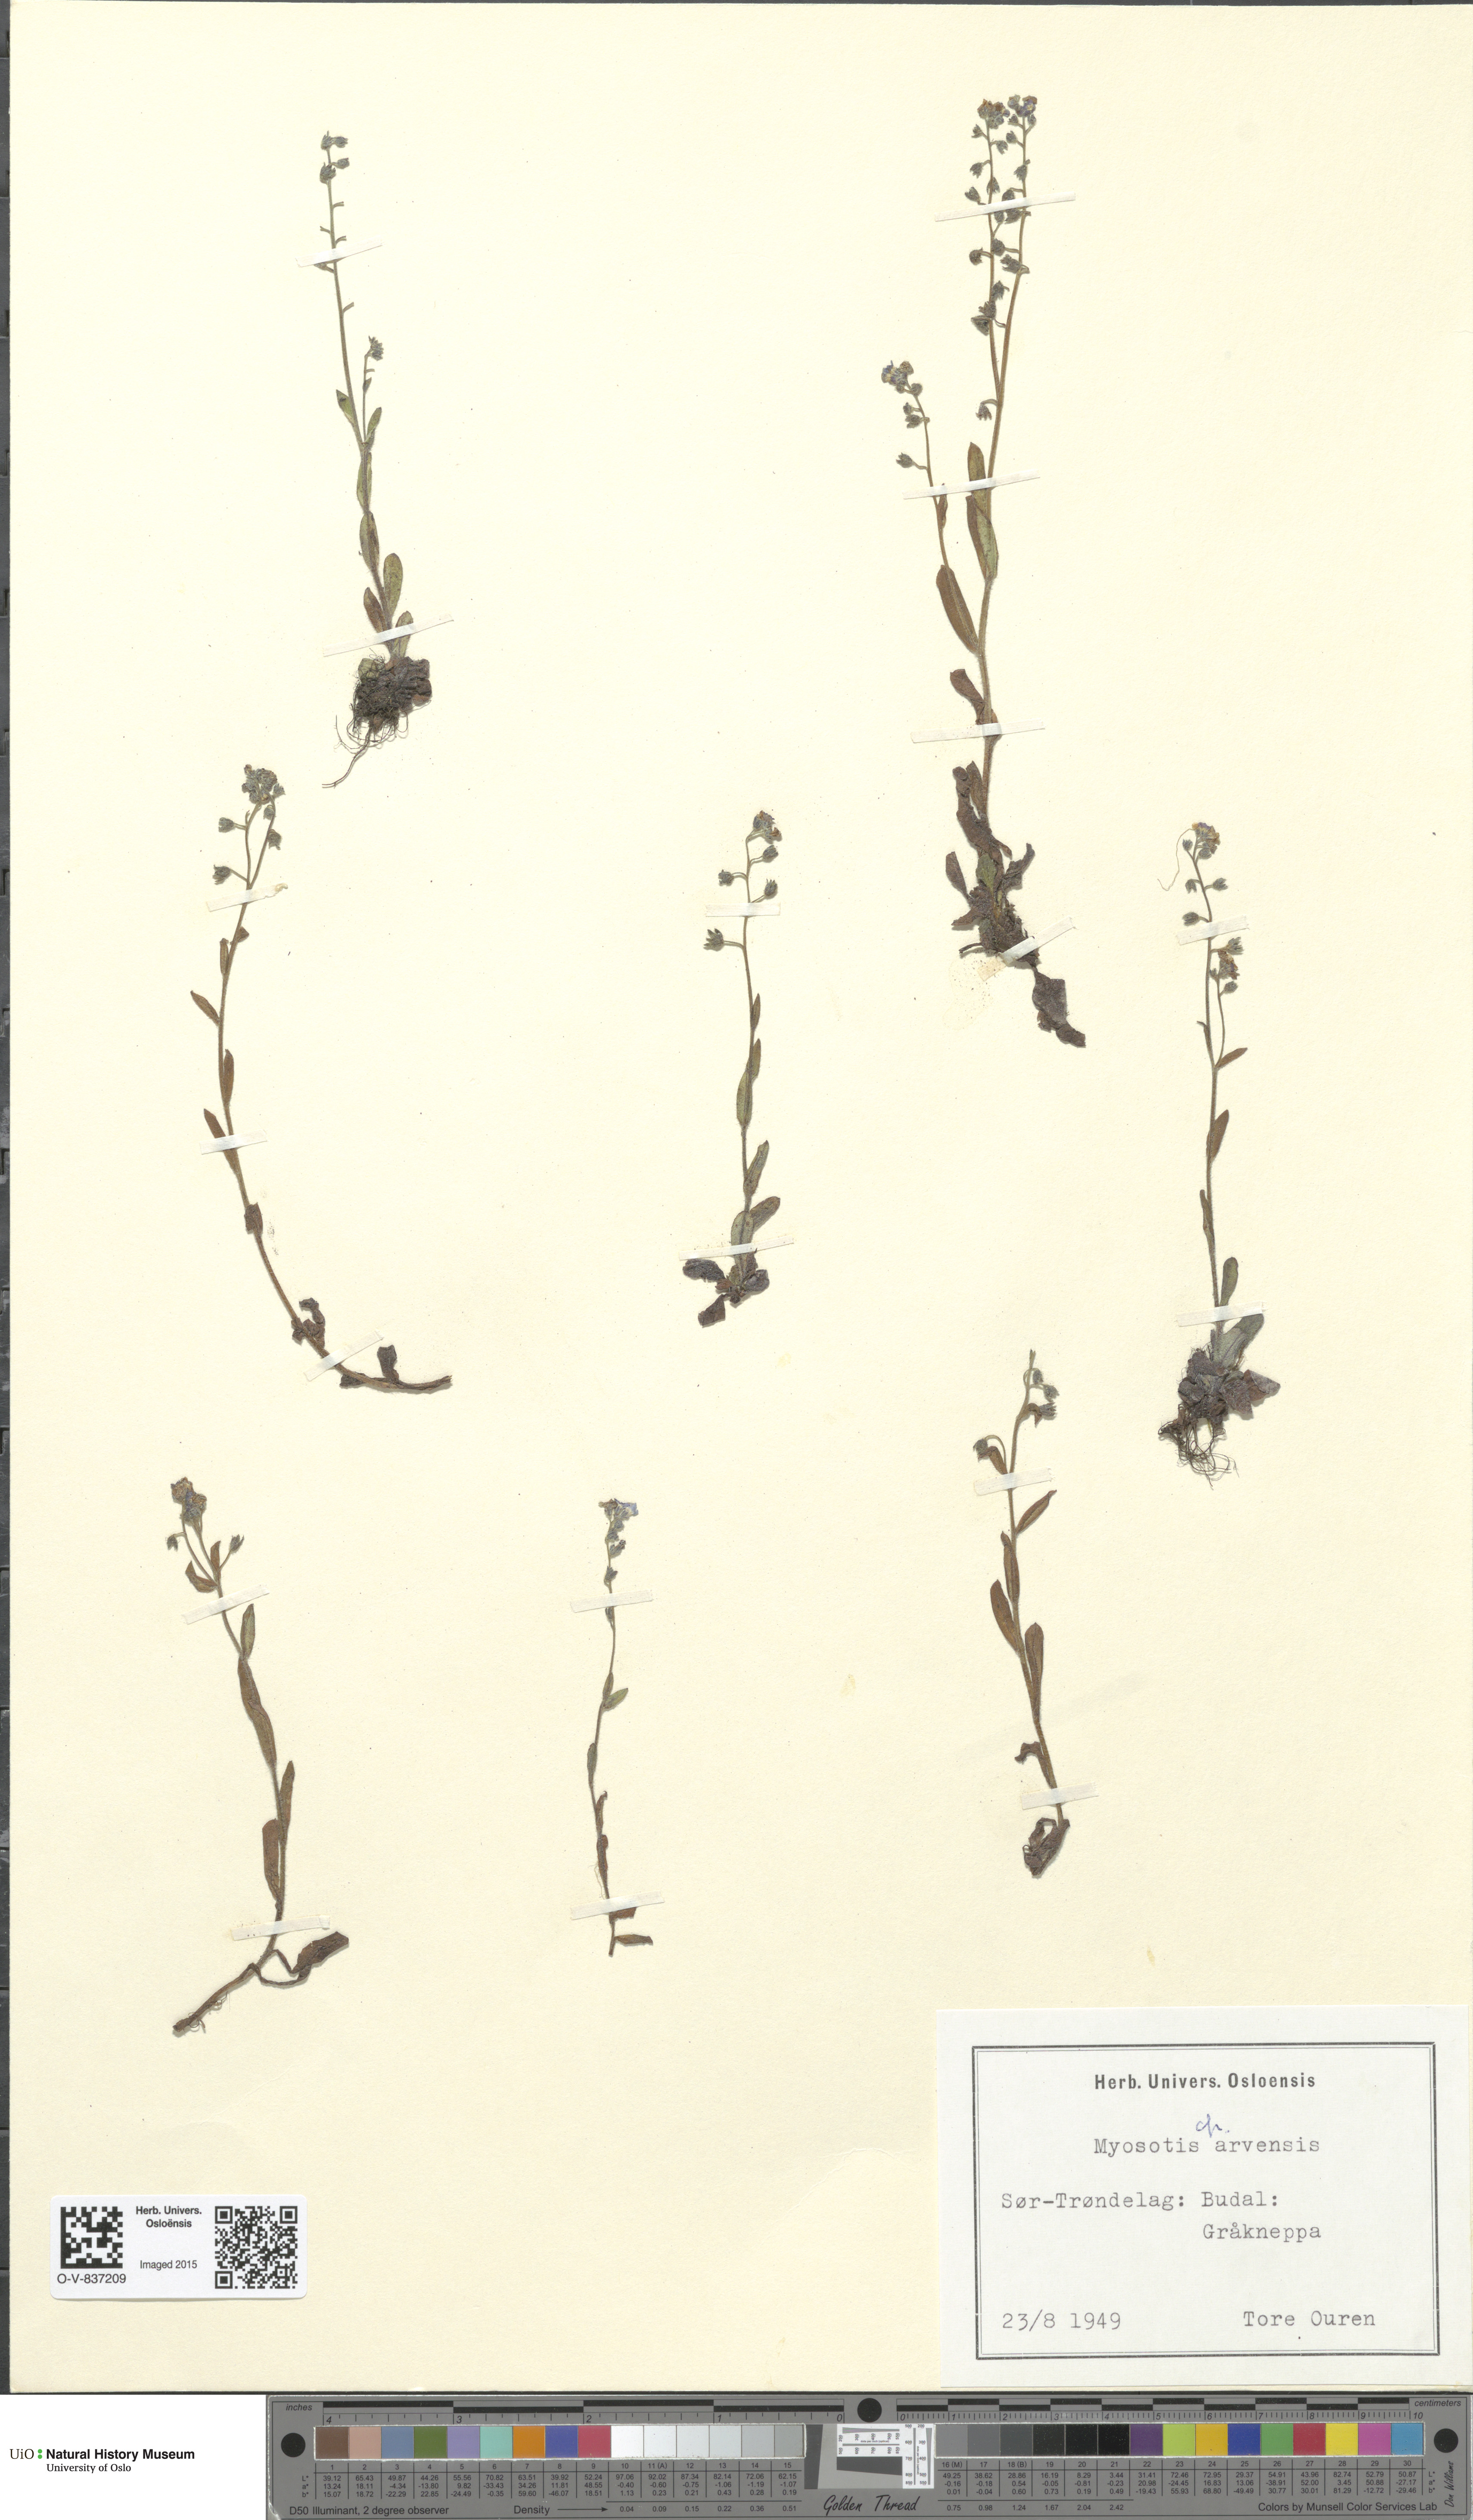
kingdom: Plantae
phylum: Tracheophyta
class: Magnoliopsida
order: Boraginales
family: Boraginaceae
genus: Myosotis
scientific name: Myosotis arvensis
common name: Field forget-me-not
